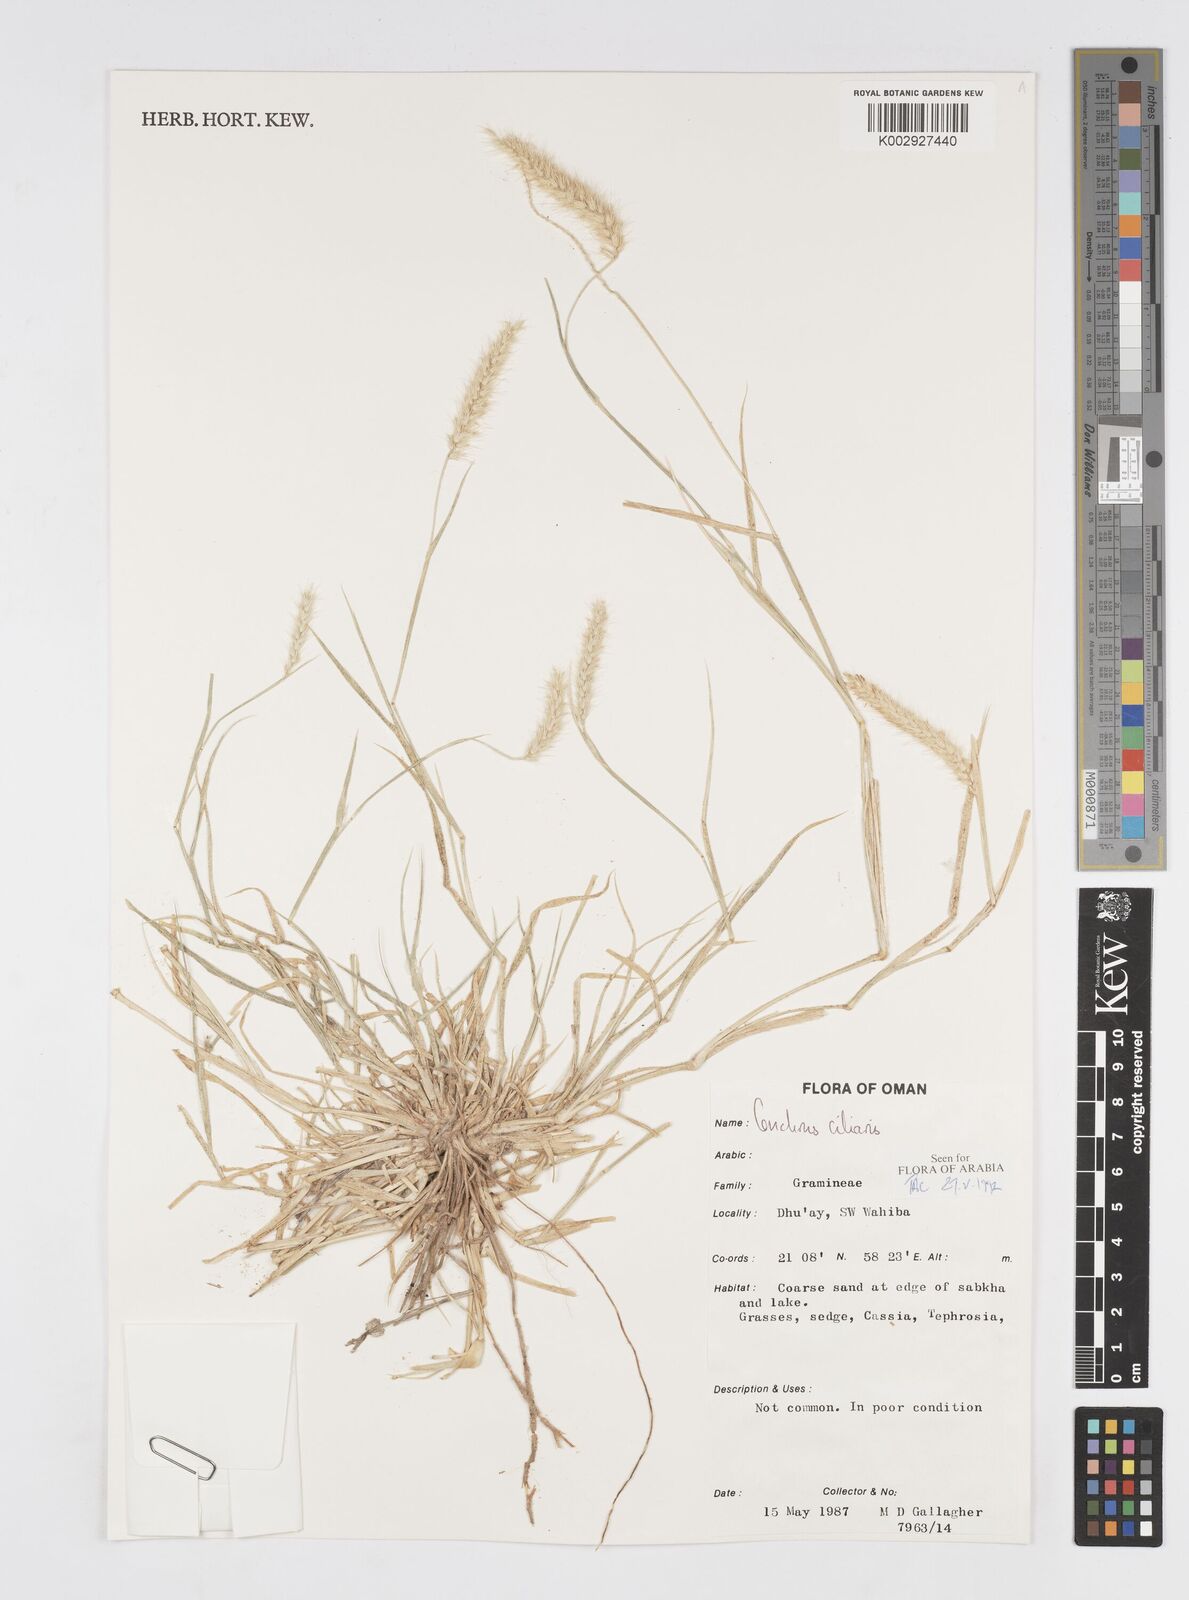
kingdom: Plantae
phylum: Tracheophyta
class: Liliopsida
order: Poales
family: Poaceae
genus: Cenchrus
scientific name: Cenchrus ciliaris
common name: Buffelgrass
